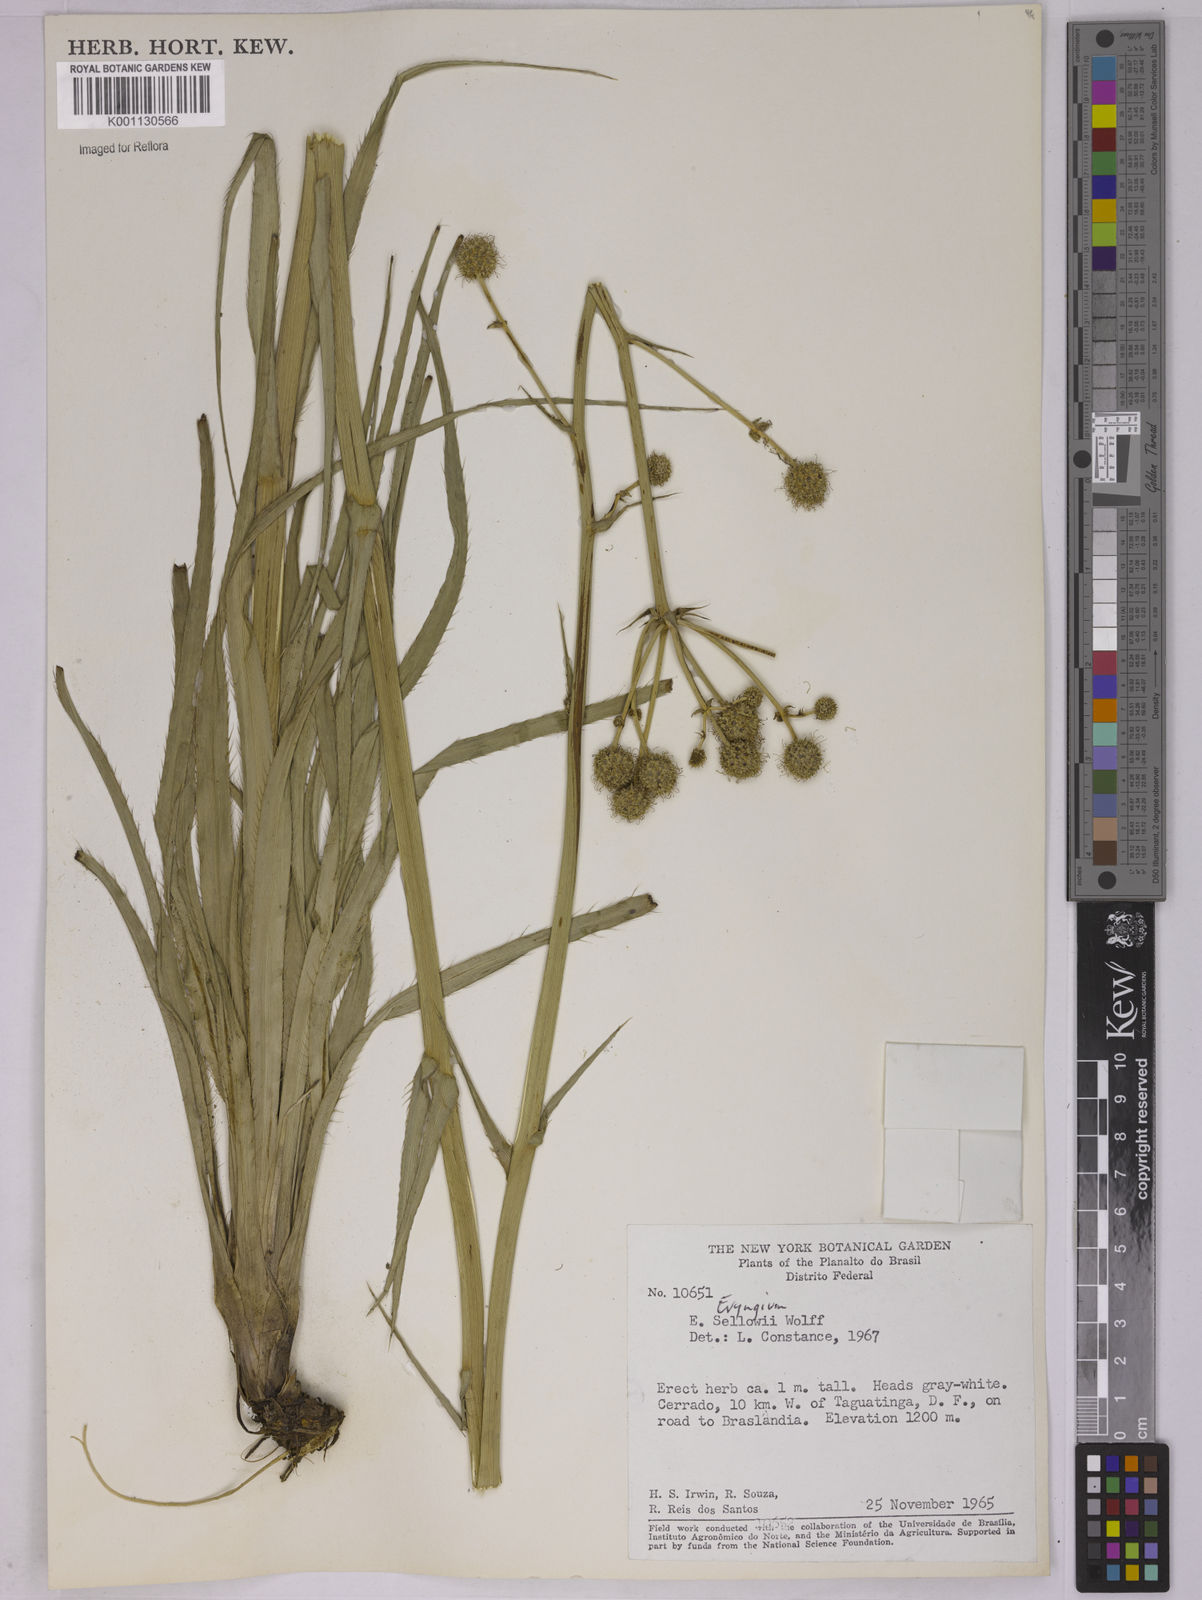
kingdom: Plantae
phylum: Tracheophyta
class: Magnoliopsida
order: Apiales
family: Apiaceae
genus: Eryngium
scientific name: Eryngium sellowii
